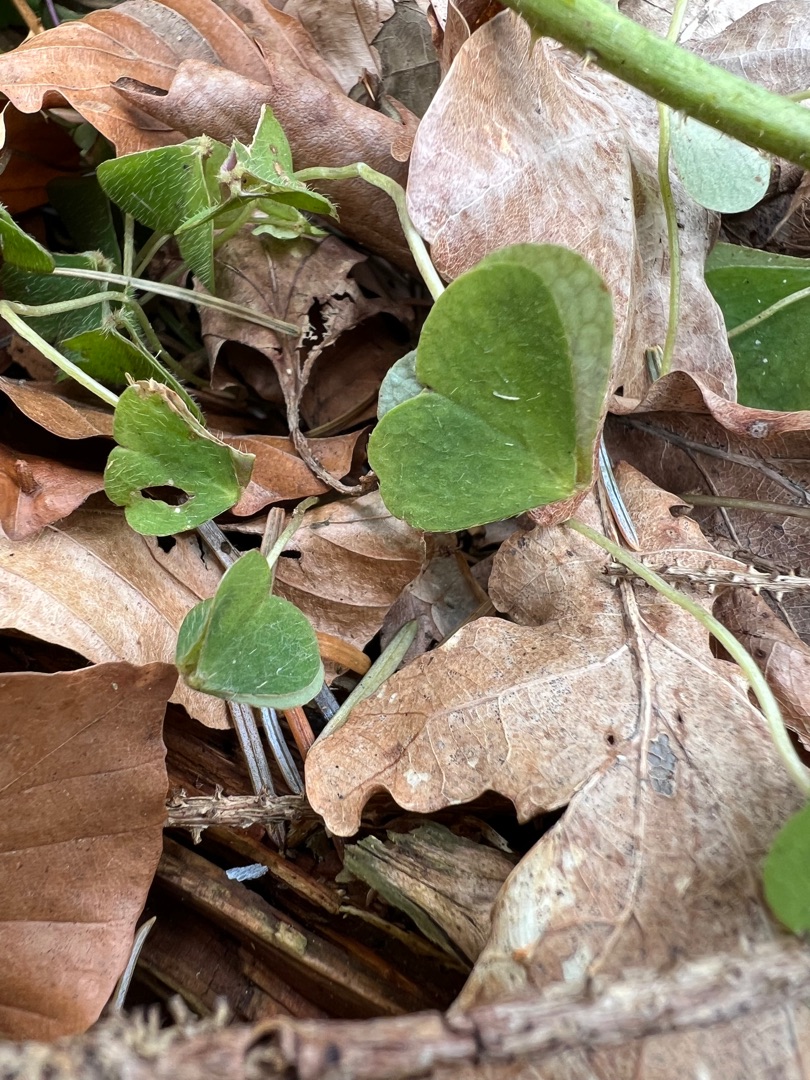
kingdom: Plantae
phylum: Tracheophyta
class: Magnoliopsida
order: Oxalidales
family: Oxalidaceae
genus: Oxalis
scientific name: Oxalis acetosella
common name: Skovsyre
